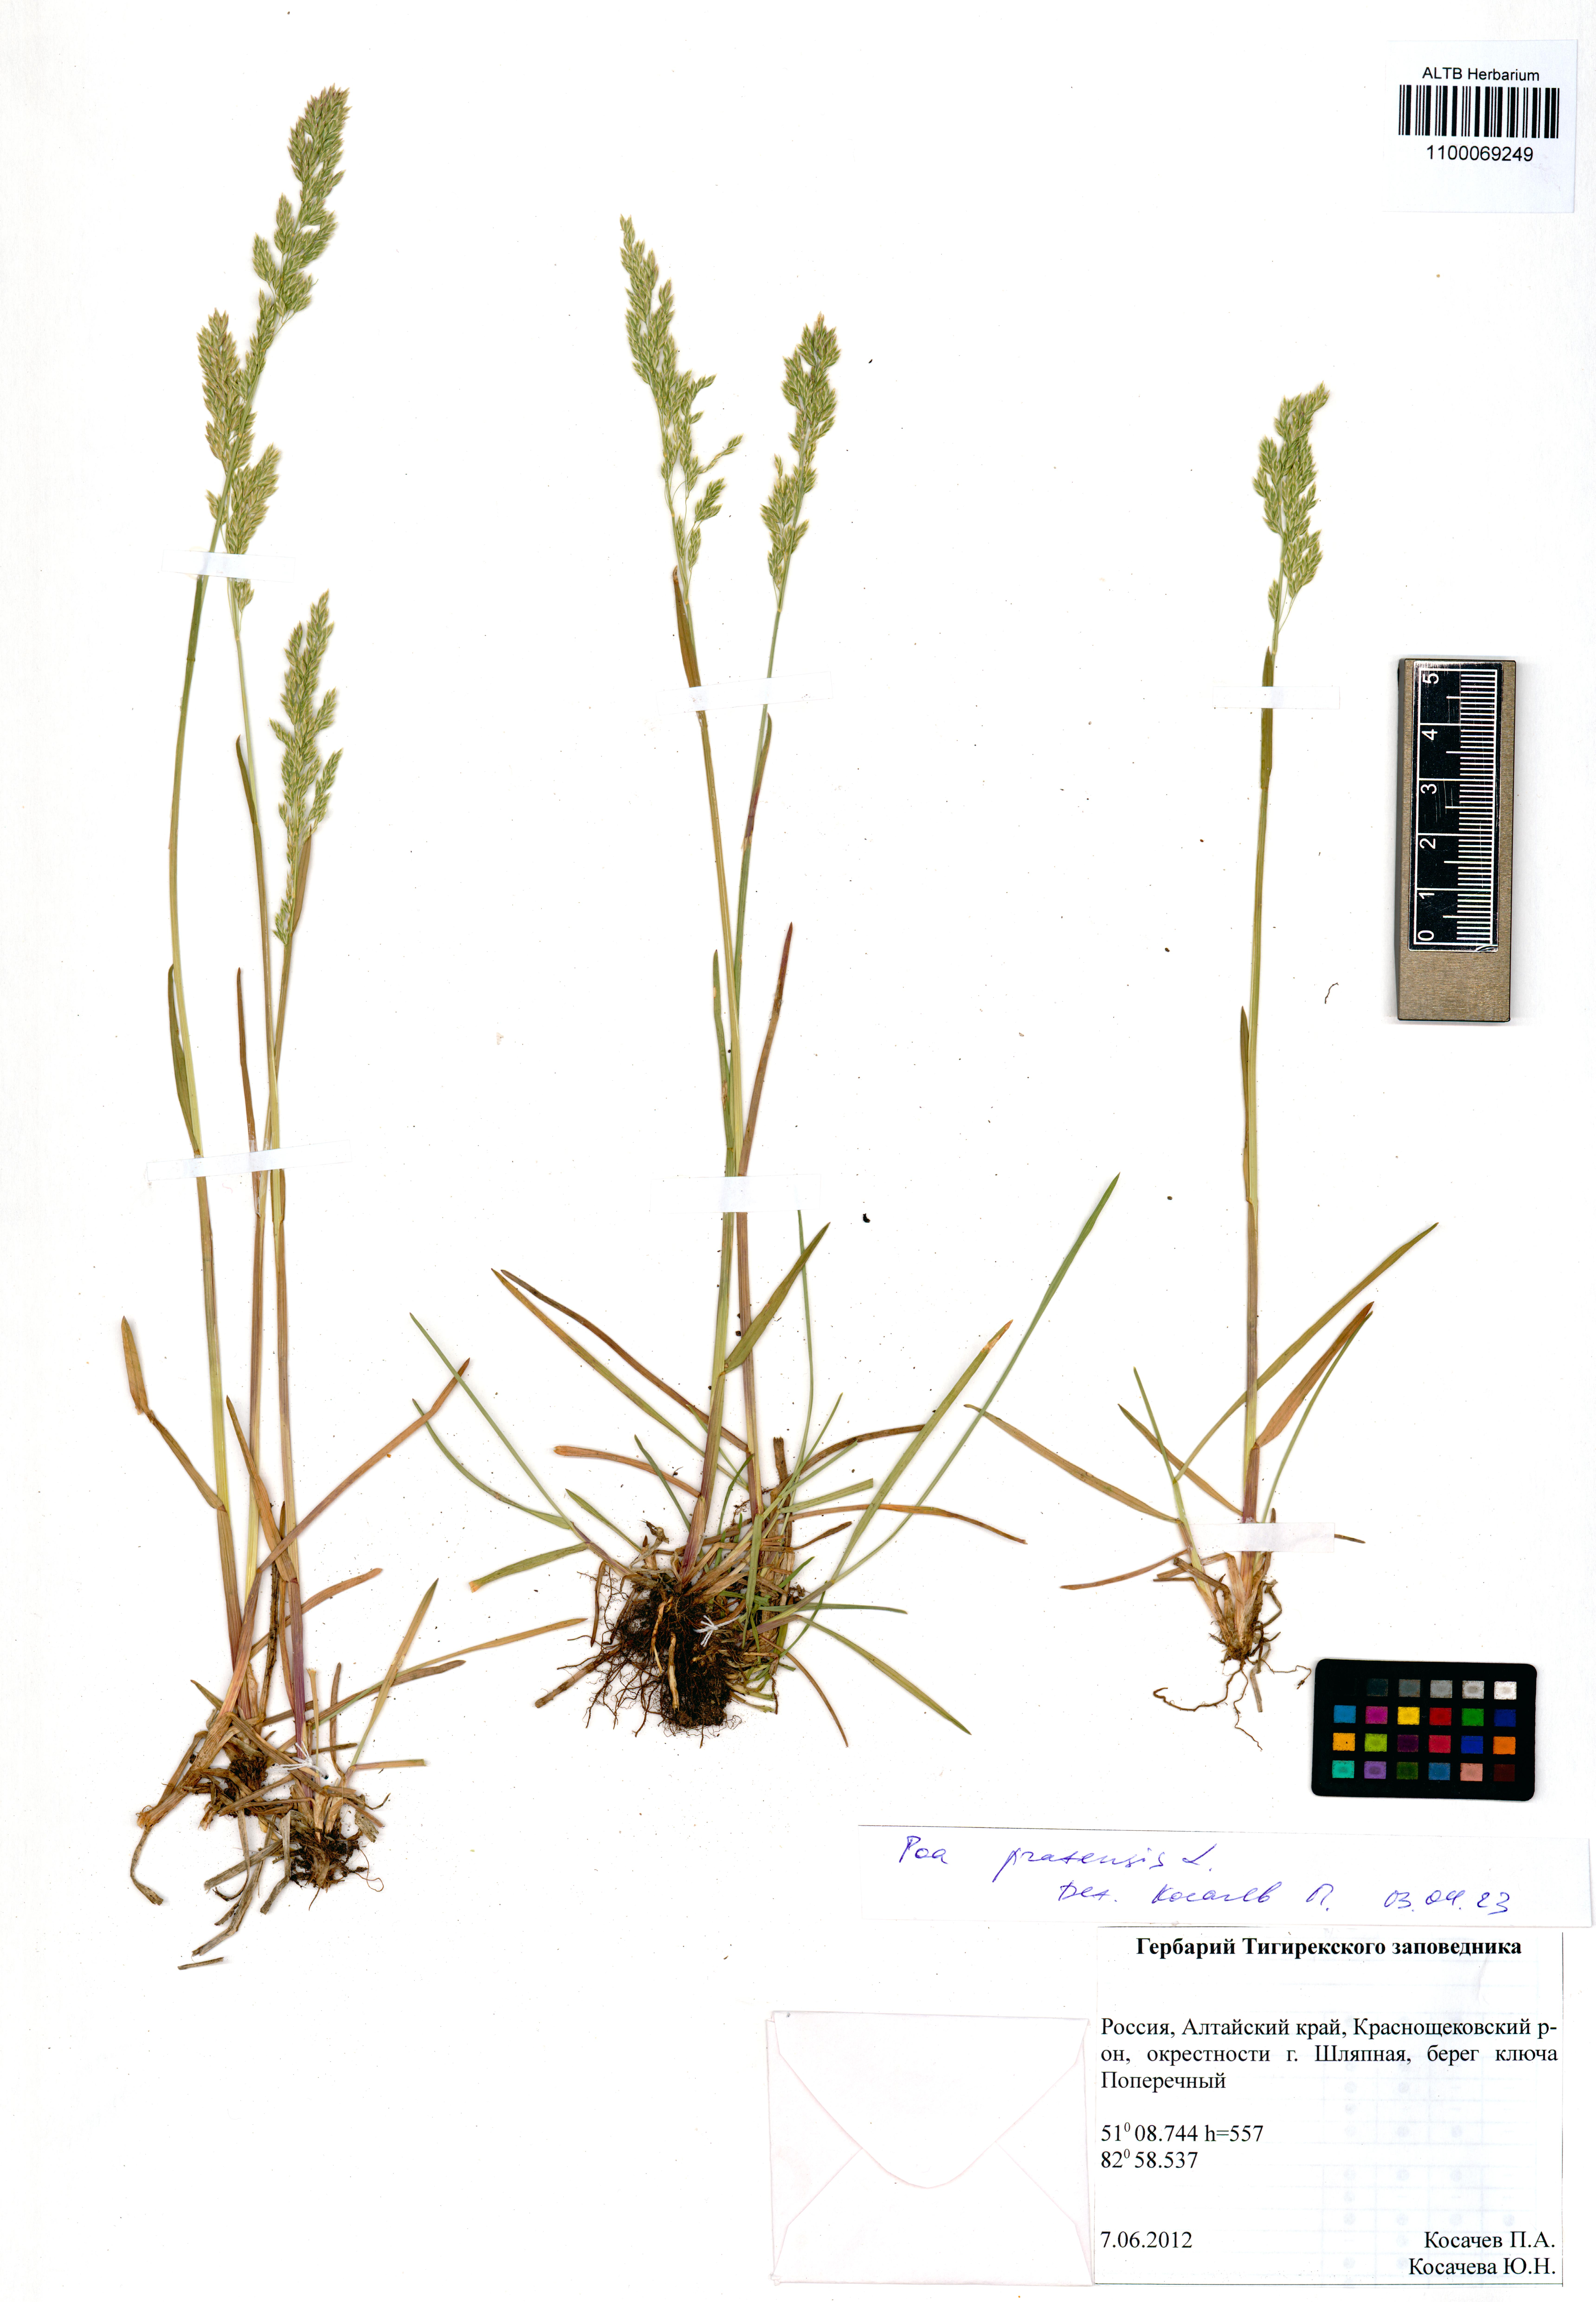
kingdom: Plantae
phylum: Tracheophyta
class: Liliopsida
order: Poales
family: Poaceae
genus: Poa
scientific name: Poa pratensis
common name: Kentucky bluegrass
